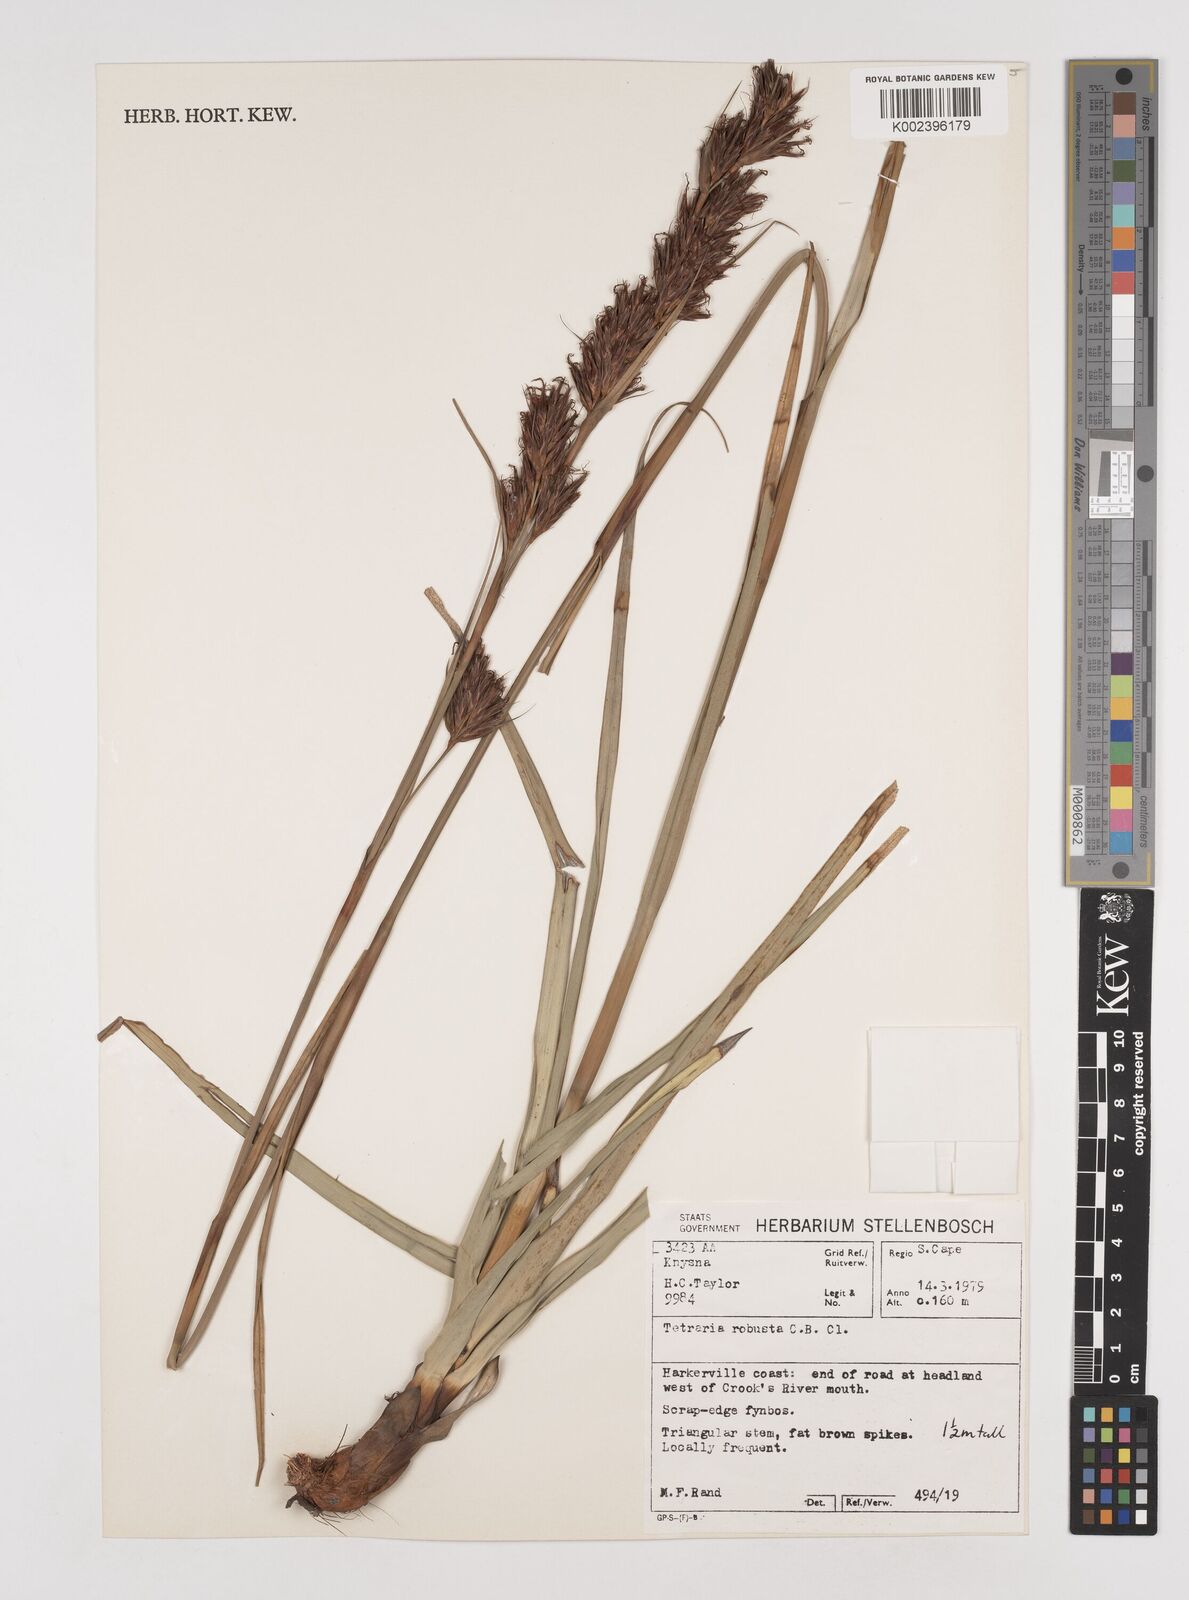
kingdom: Plantae
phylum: Tracheophyta
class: Liliopsida
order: Poales
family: Cyperaceae
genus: Tetraria
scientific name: Tetraria robusta
